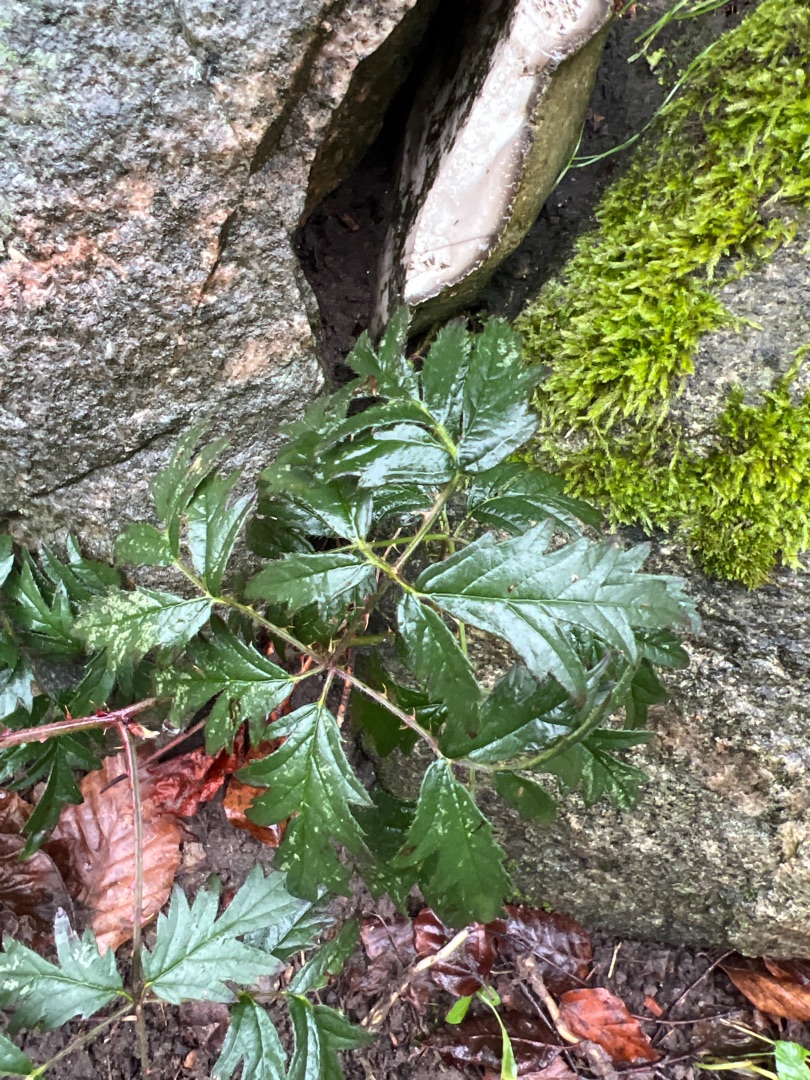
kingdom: Plantae
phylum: Tracheophyta
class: Magnoliopsida
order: Rosales
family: Rosaceae
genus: Rubus
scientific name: Rubus laciniatus
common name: Fliget brombær
